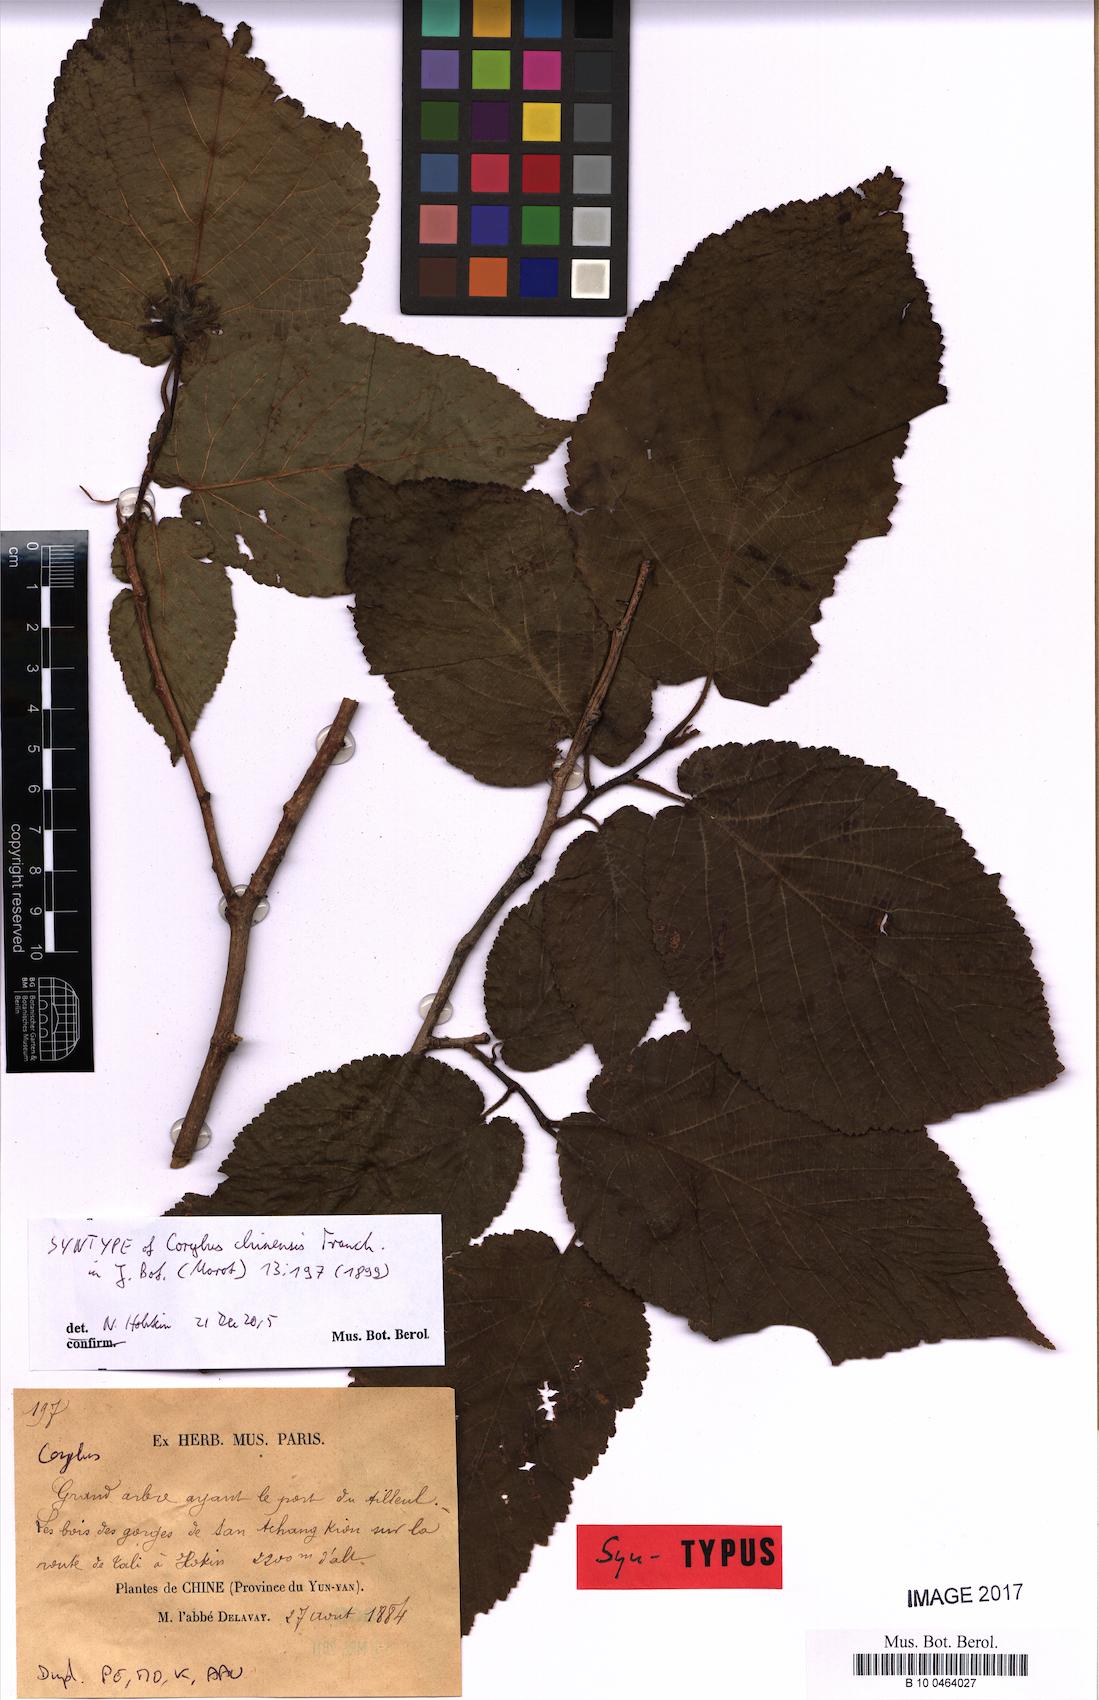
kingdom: Plantae
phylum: Tracheophyta
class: Magnoliopsida
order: Fagales
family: Betulaceae
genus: Corylus
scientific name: Corylus chinensis
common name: Chinese hazlenut
